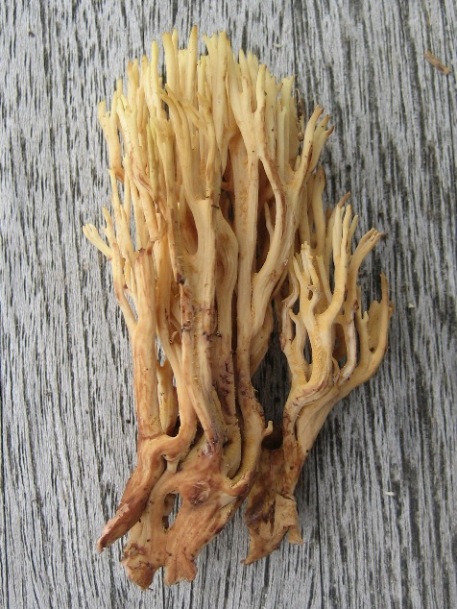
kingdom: Fungi
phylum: Basidiomycota
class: Agaricomycetes
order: Gomphales
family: Gomphaceae
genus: Ramaria
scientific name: Ramaria stricta
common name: rank koralsvamp
